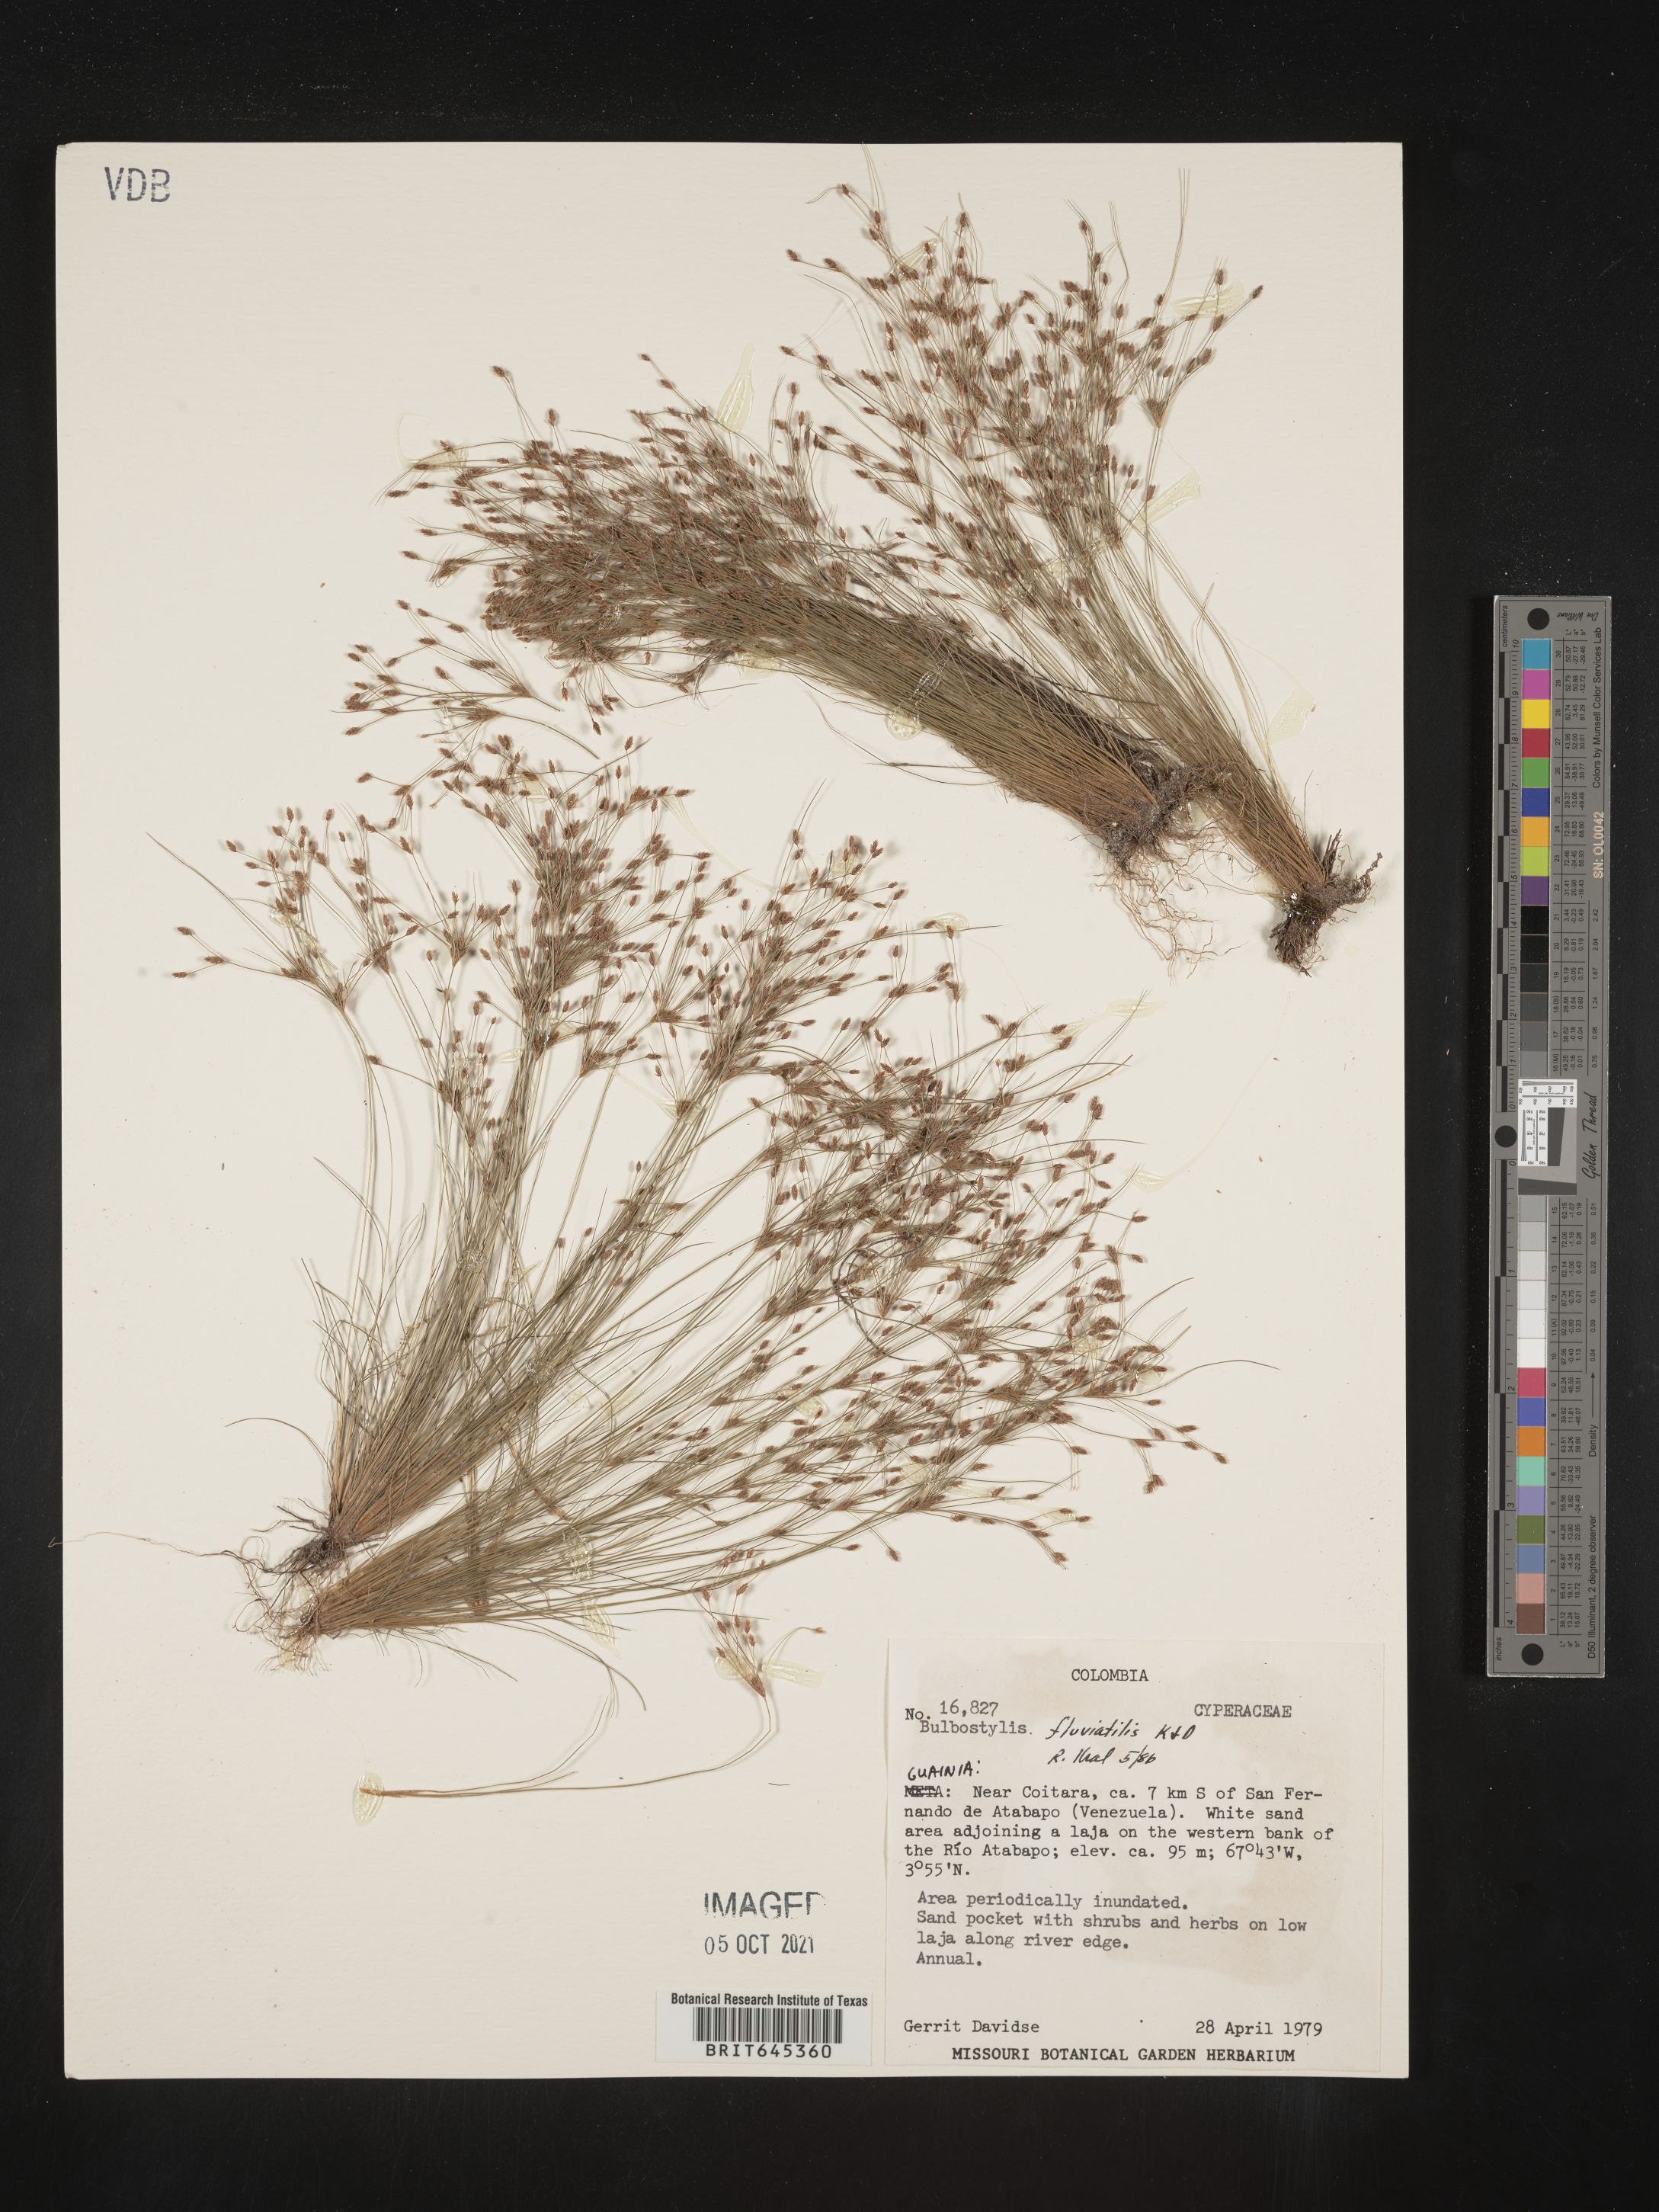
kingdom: Plantae
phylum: Tracheophyta
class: Liliopsida
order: Poales
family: Cyperaceae
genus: Bulbostylis
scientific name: Bulbostylis fluviatilis
